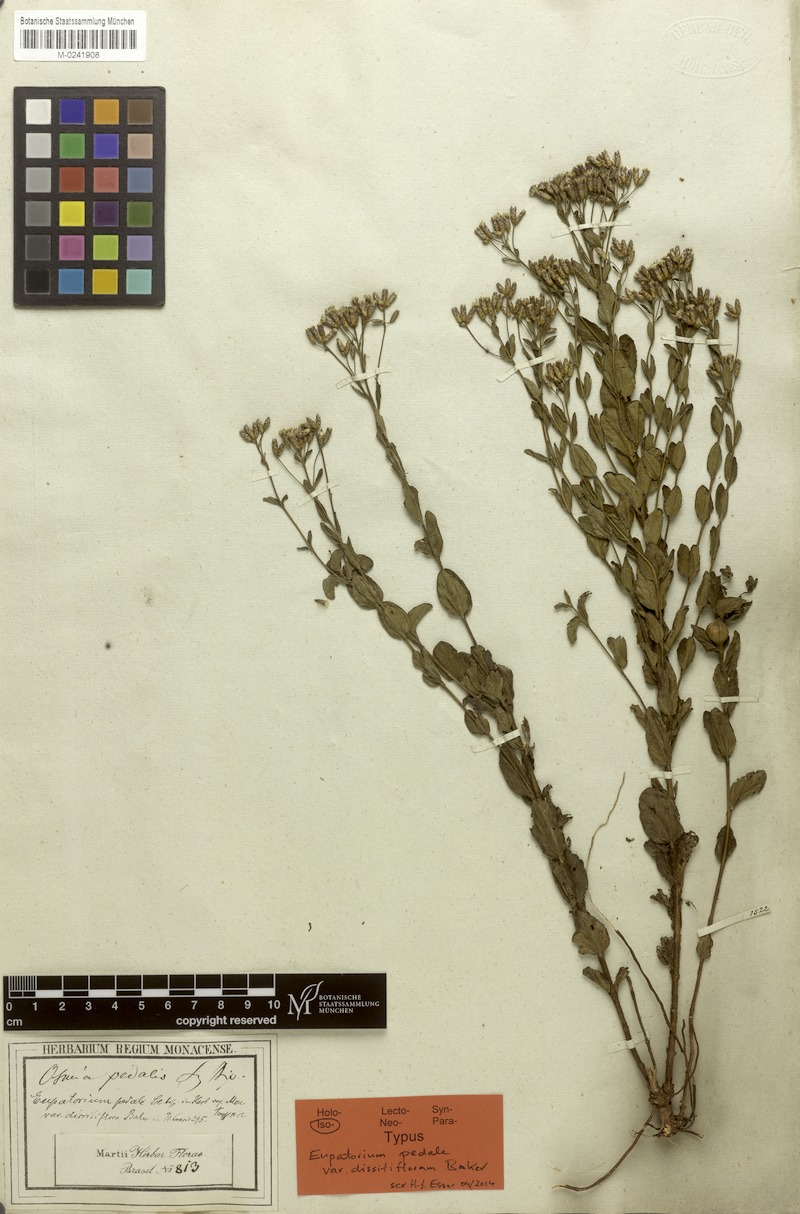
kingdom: Plantae
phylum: Tracheophyta
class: Magnoliopsida
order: Asterales
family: Asteraceae
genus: Chromolaena
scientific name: Chromolaena pedalis
